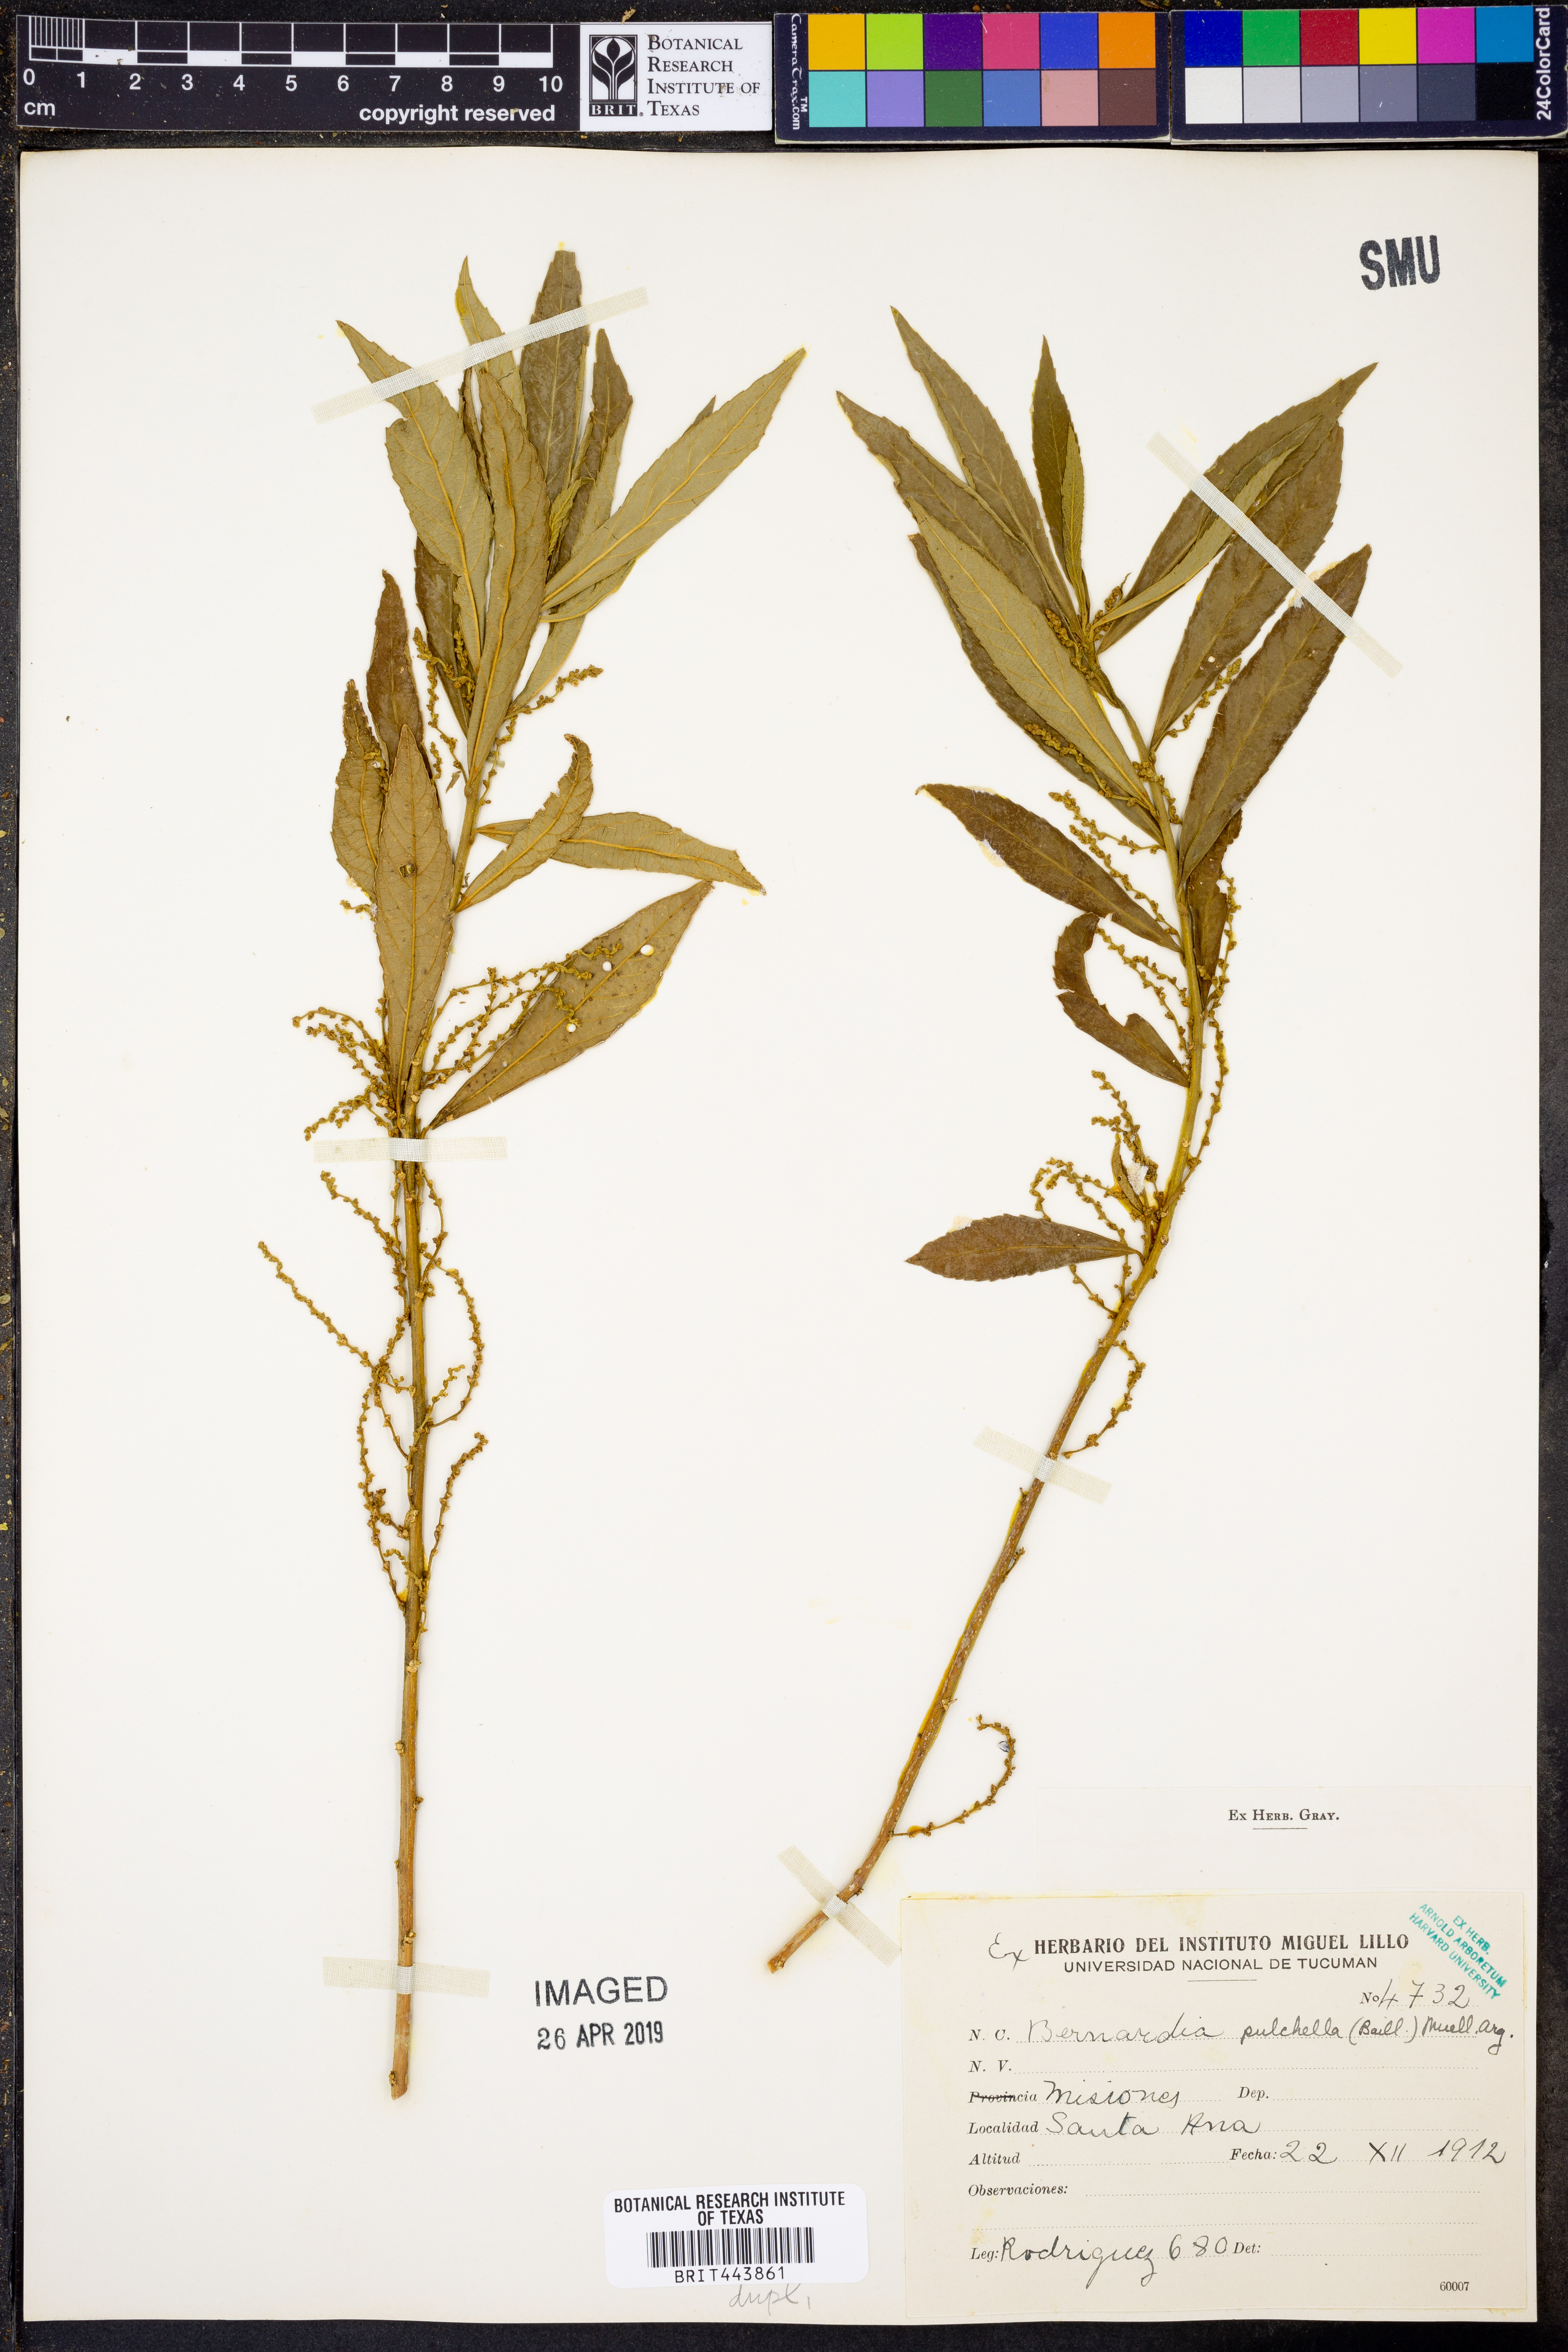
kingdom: Plantae
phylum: Tracheophyta
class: Magnoliopsida
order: Malpighiales
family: Euphorbiaceae
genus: Bernardia
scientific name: Bernardia pulchella
